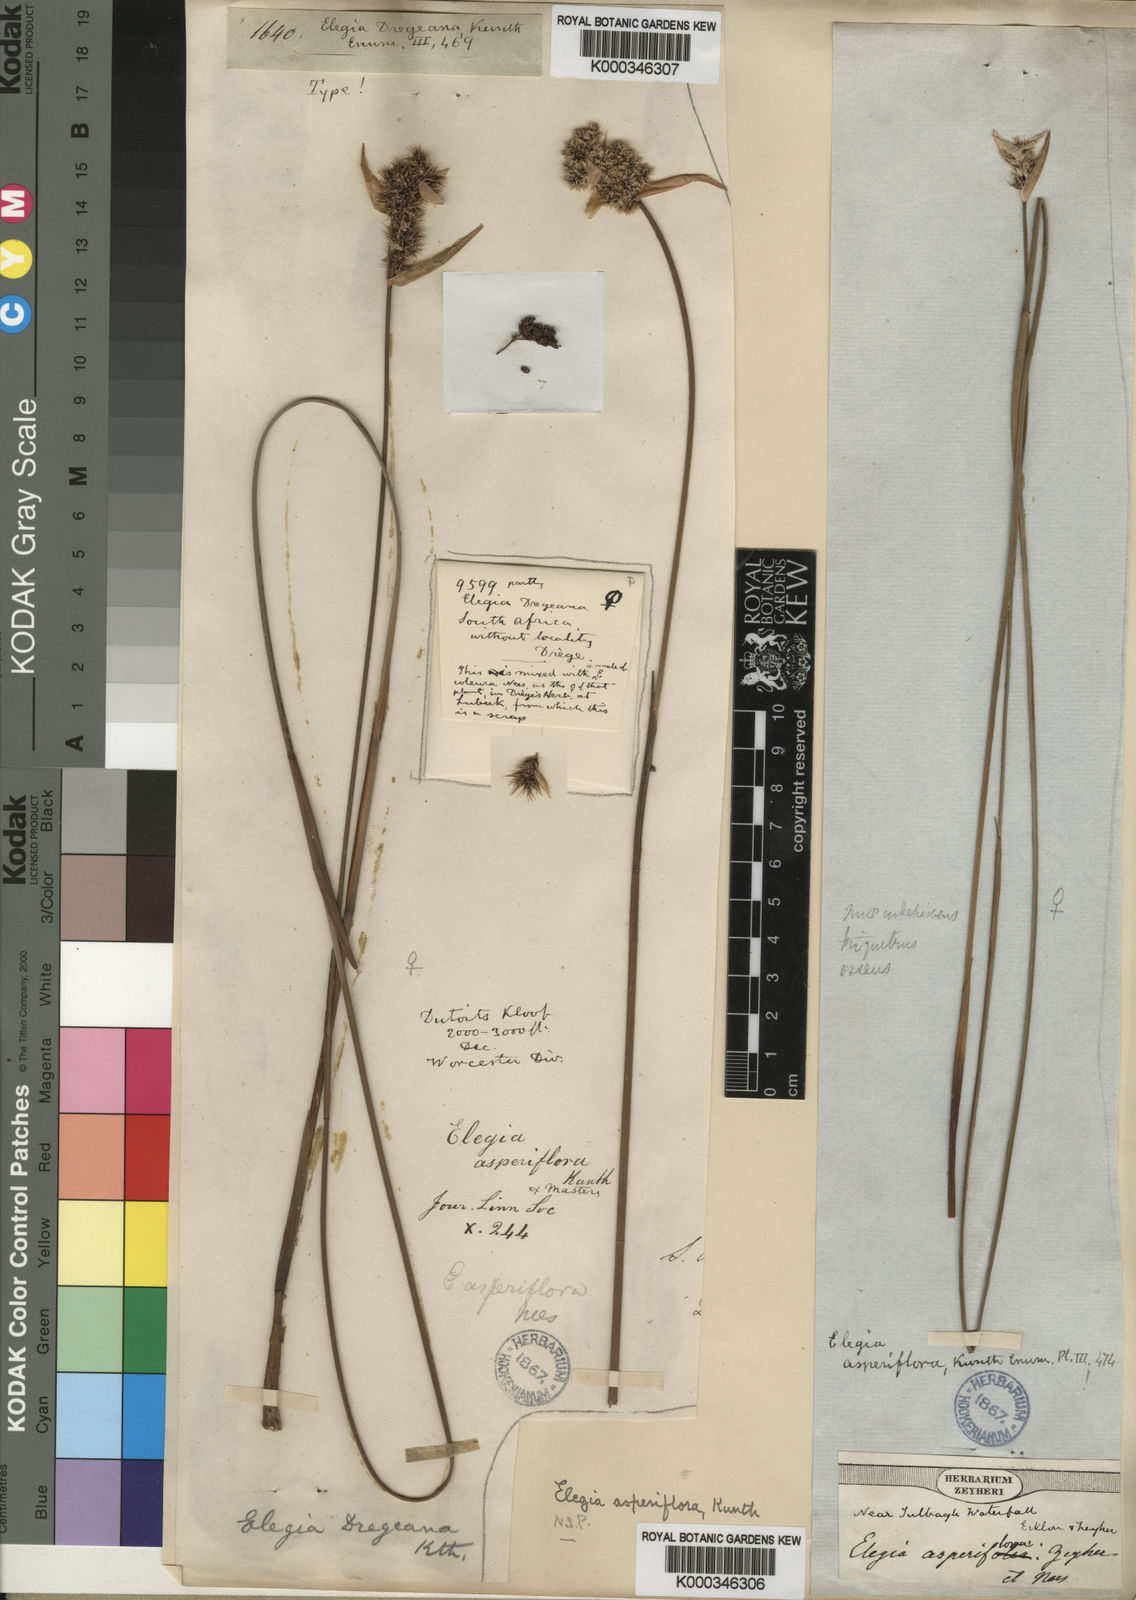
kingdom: Plantae
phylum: Tracheophyta
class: Liliopsida
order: Poales
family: Restionaceae
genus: Elegia
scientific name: Elegia asperiflora
